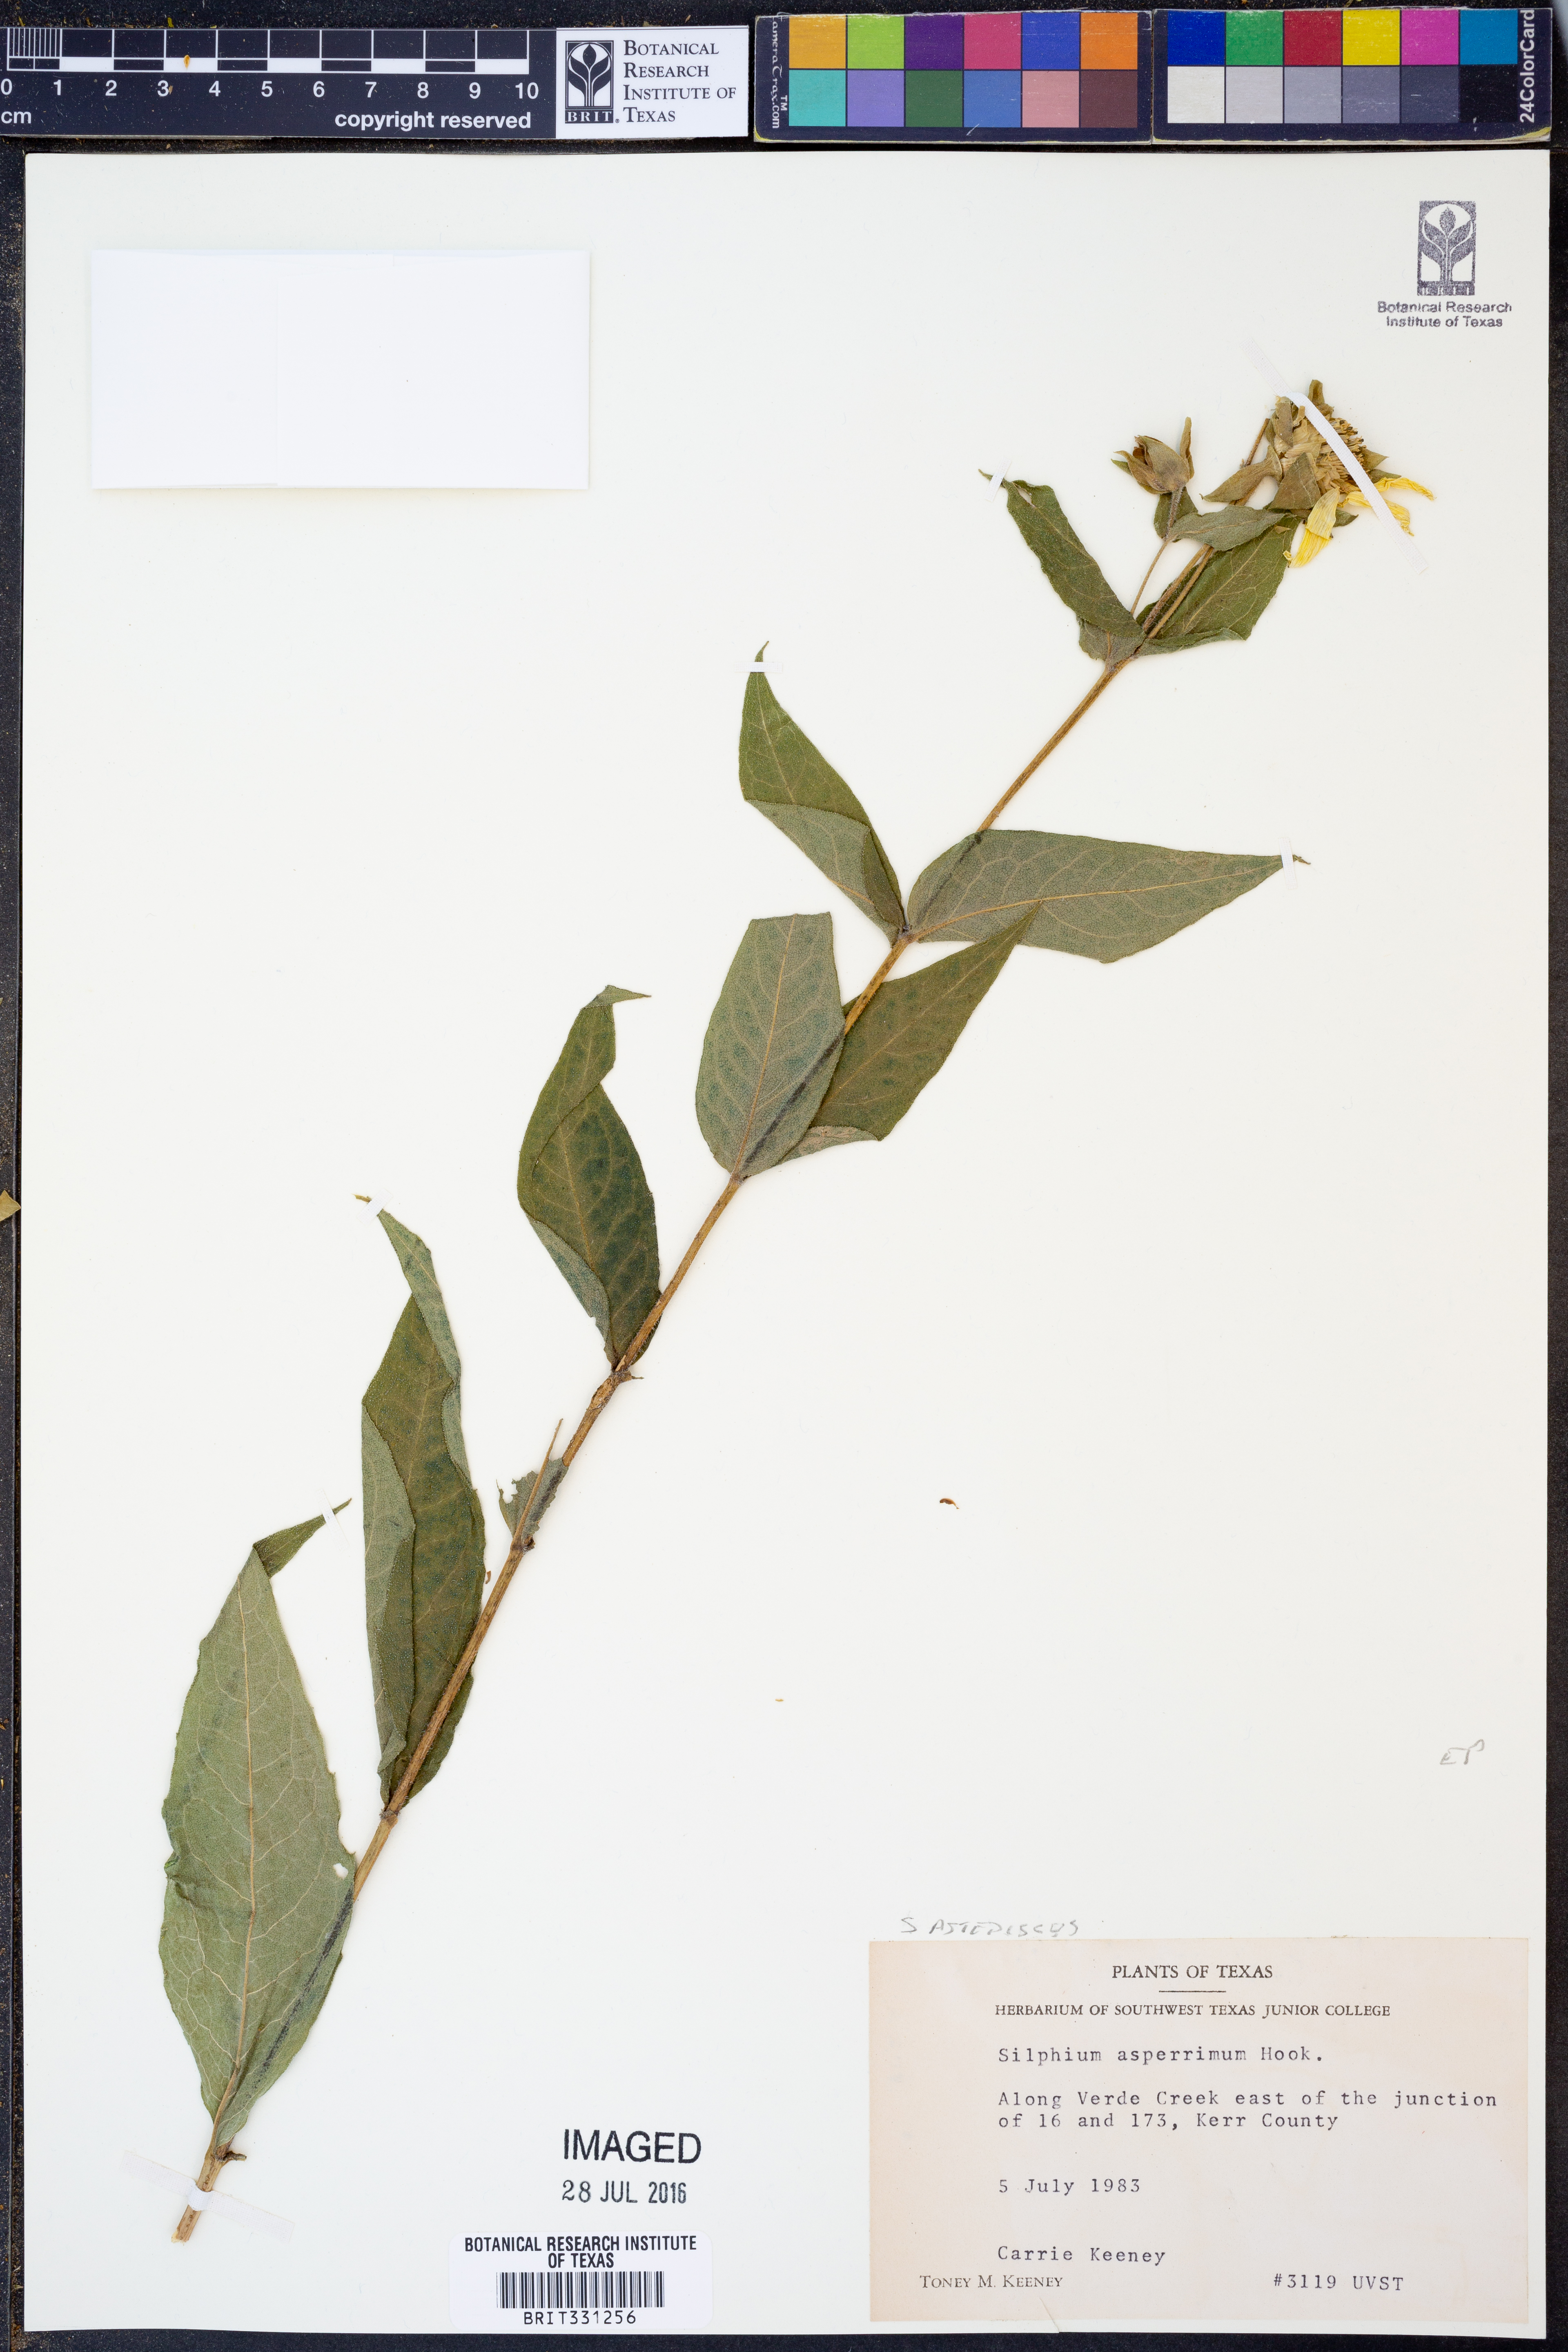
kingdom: Plantae
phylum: Tracheophyta
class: Magnoliopsida
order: Asterales
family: Asteraceae
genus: Silphium
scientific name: Silphium asteriscus
